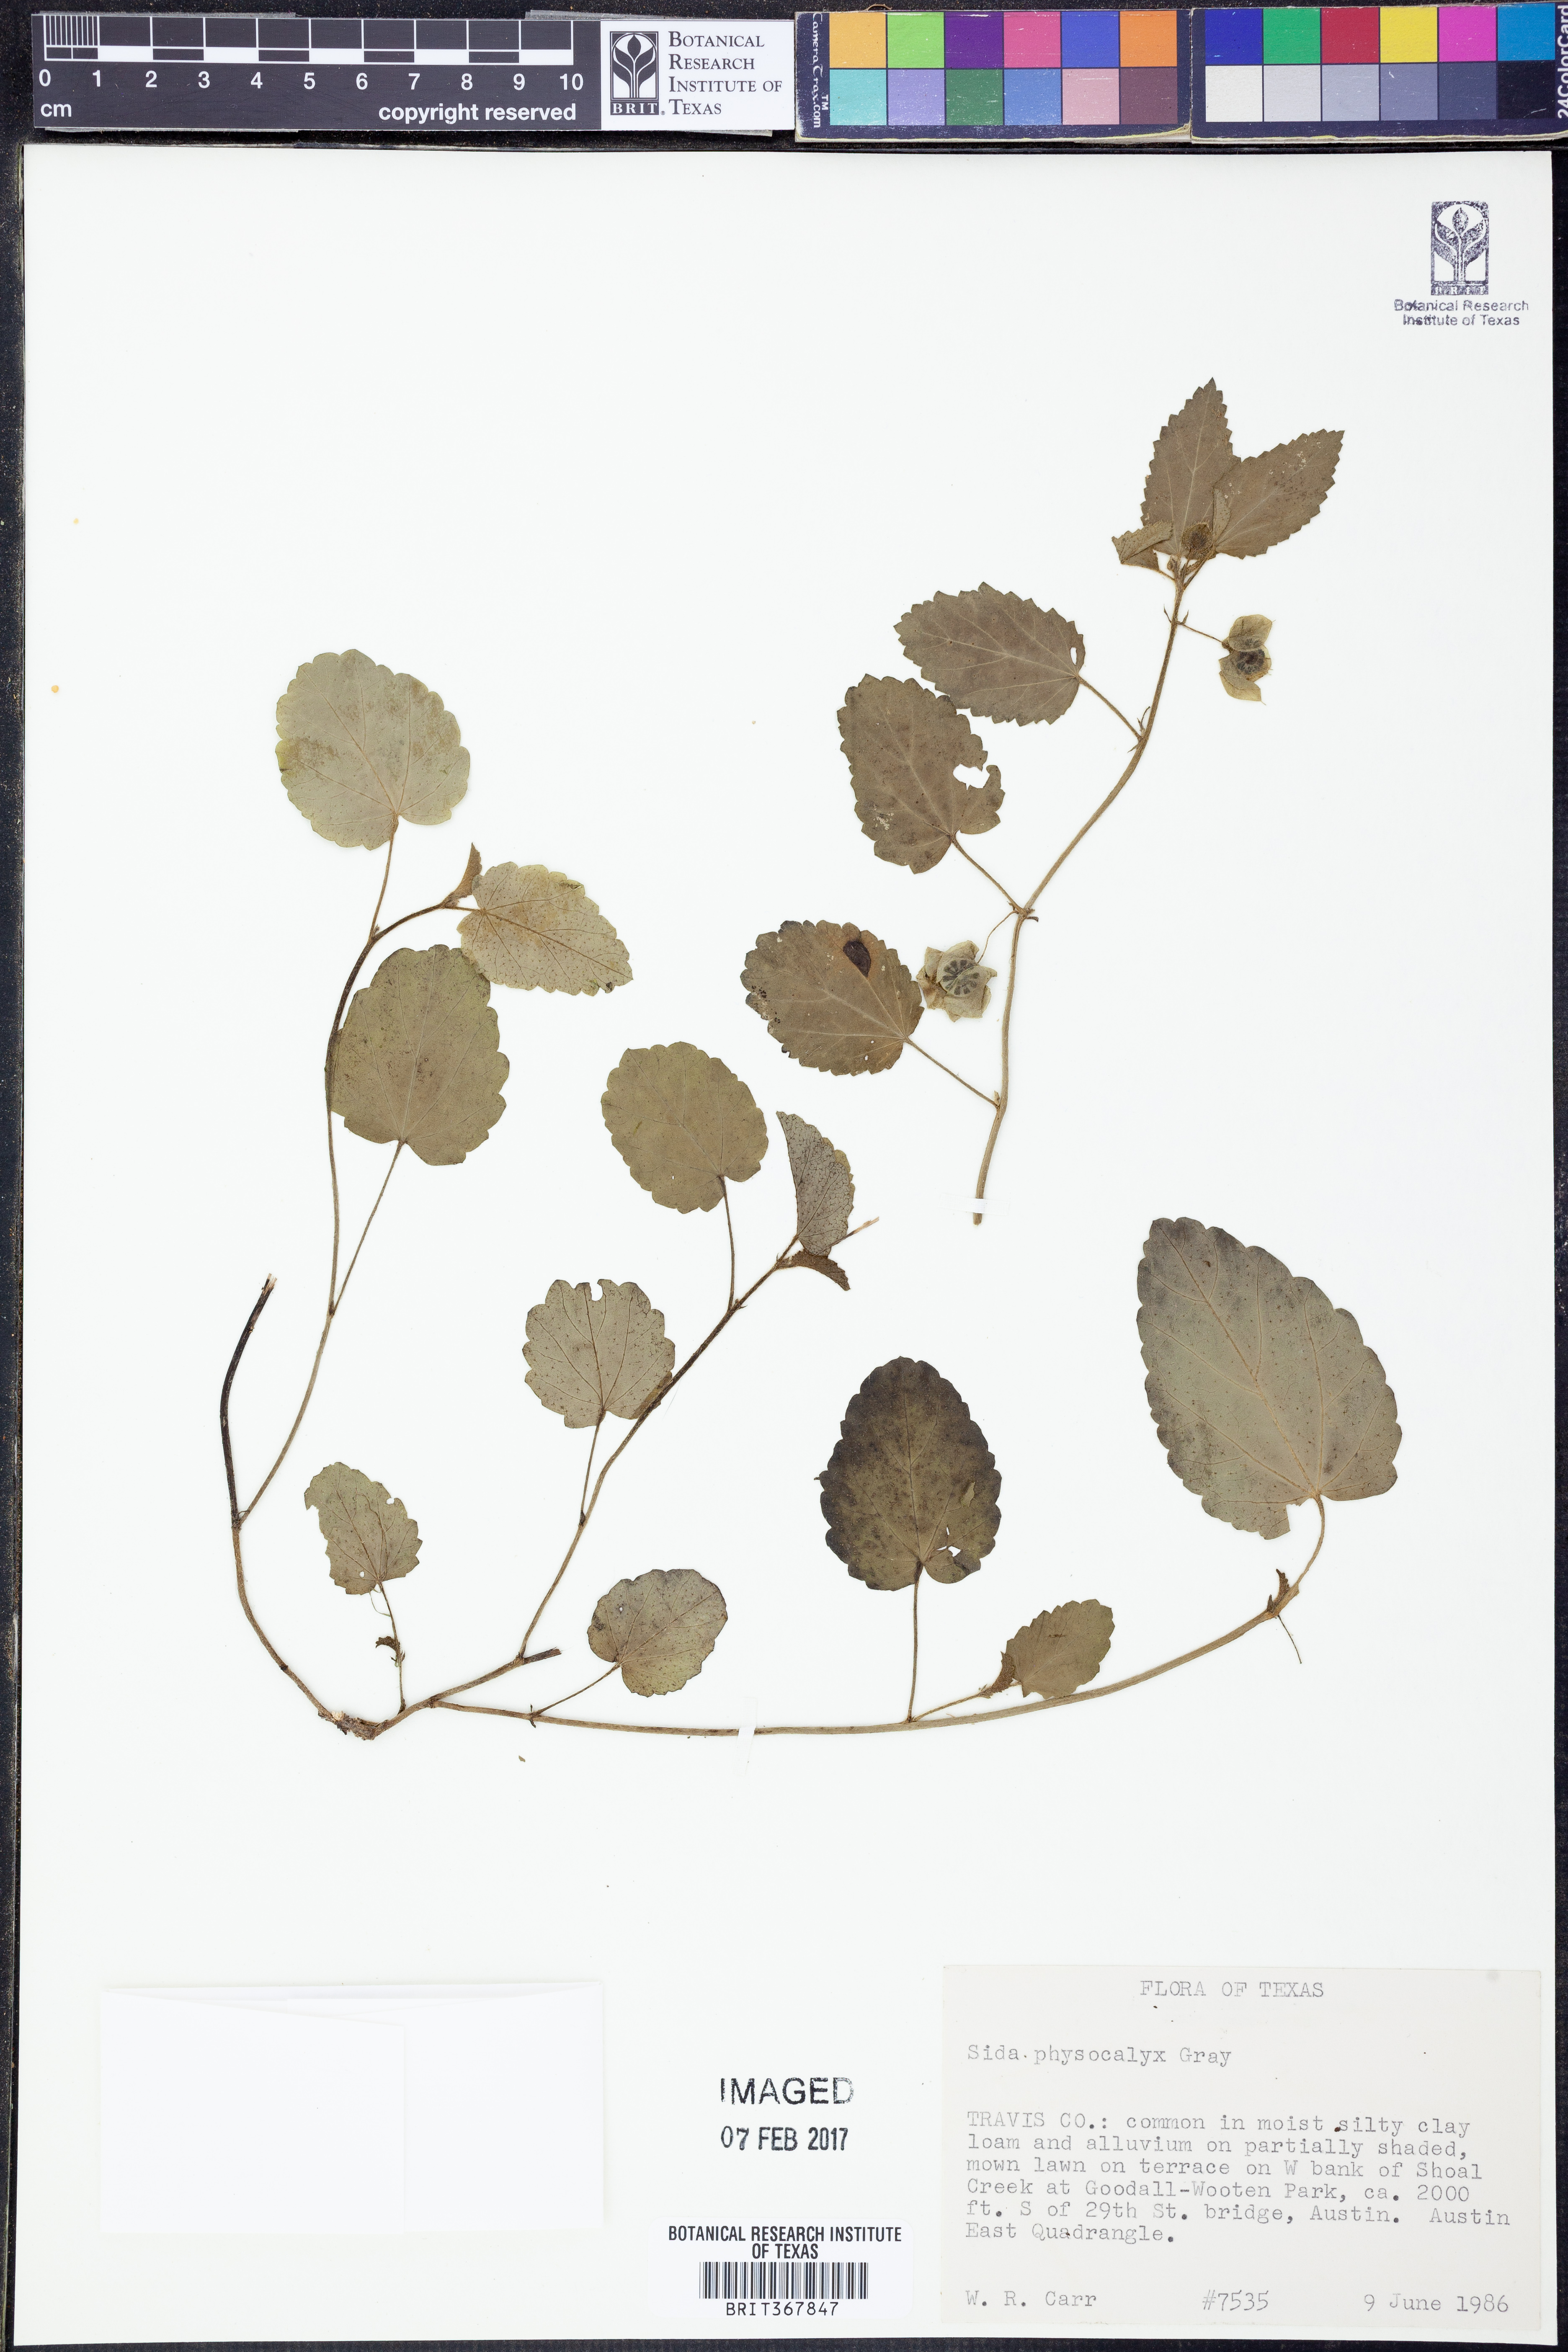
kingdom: Plantae
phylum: Tracheophyta
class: Magnoliopsida
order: Malvales
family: Malvaceae
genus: Rhynchosida
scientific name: Rhynchosida physocalyx
